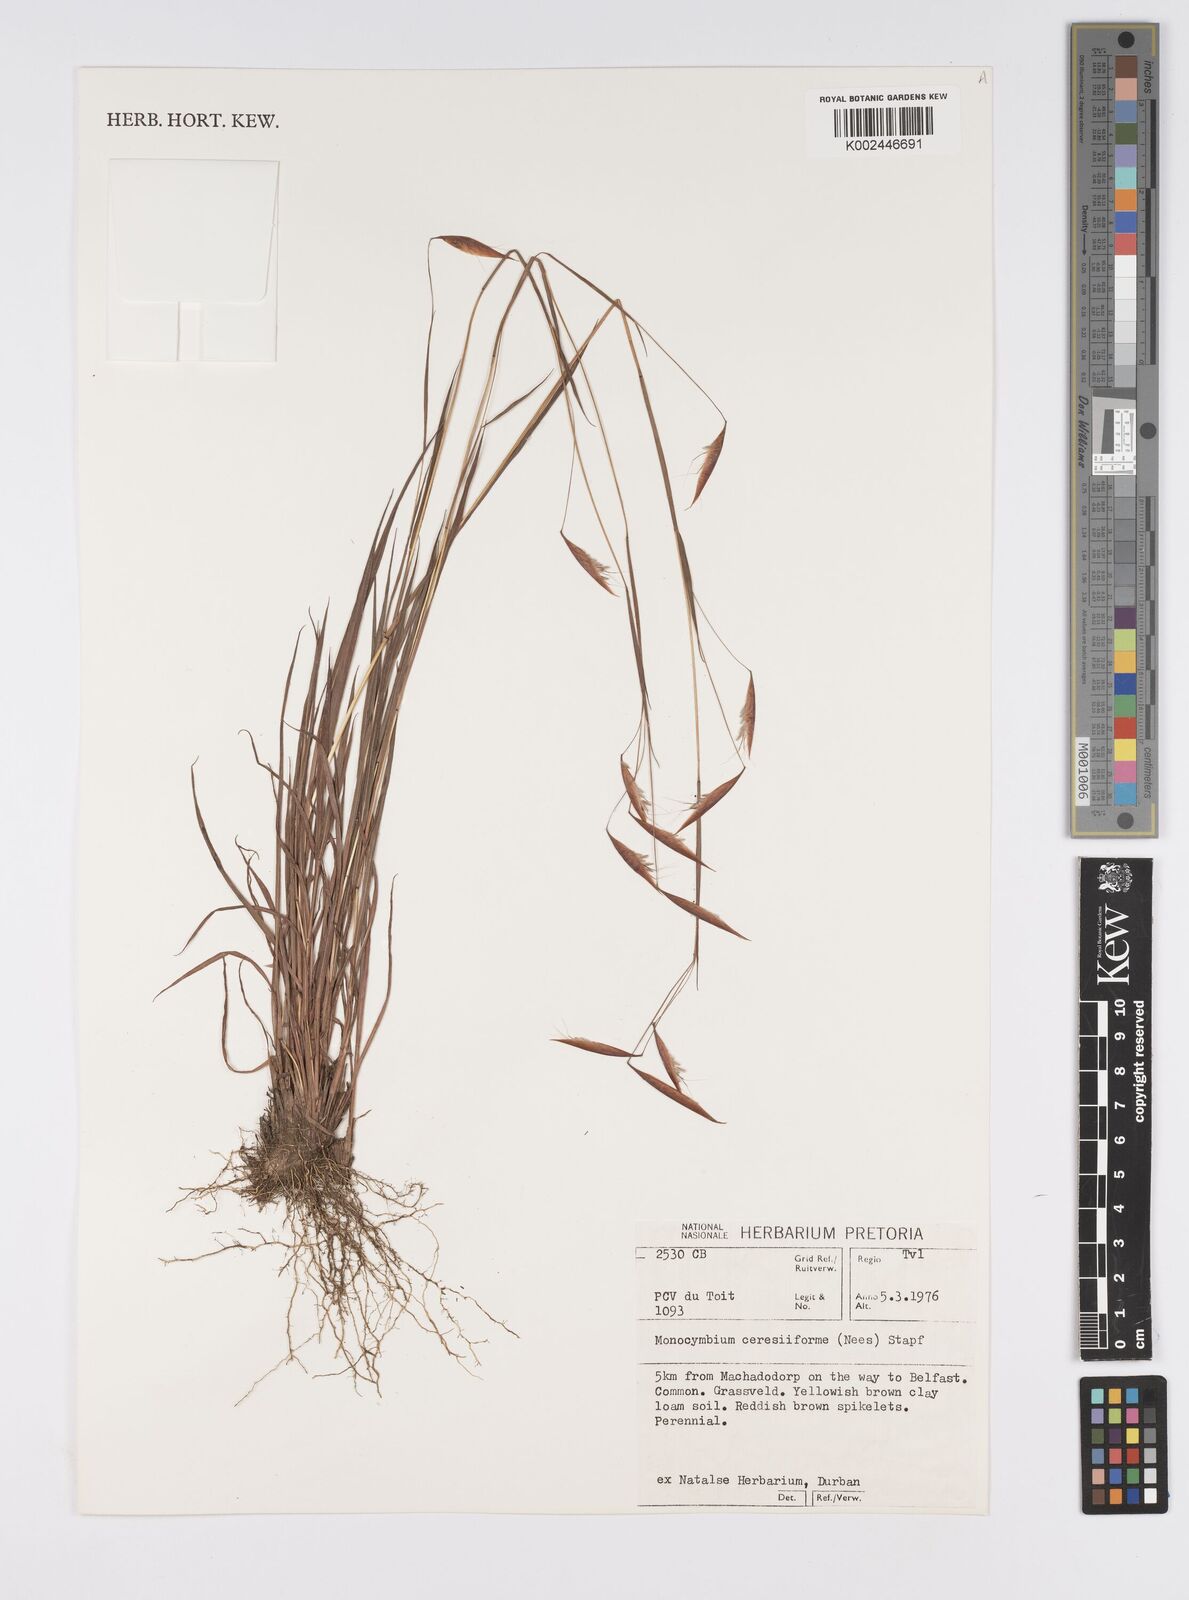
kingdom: Plantae
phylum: Tracheophyta
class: Liliopsida
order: Poales
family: Poaceae
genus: Monocymbium
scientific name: Monocymbium ceresiiforme
